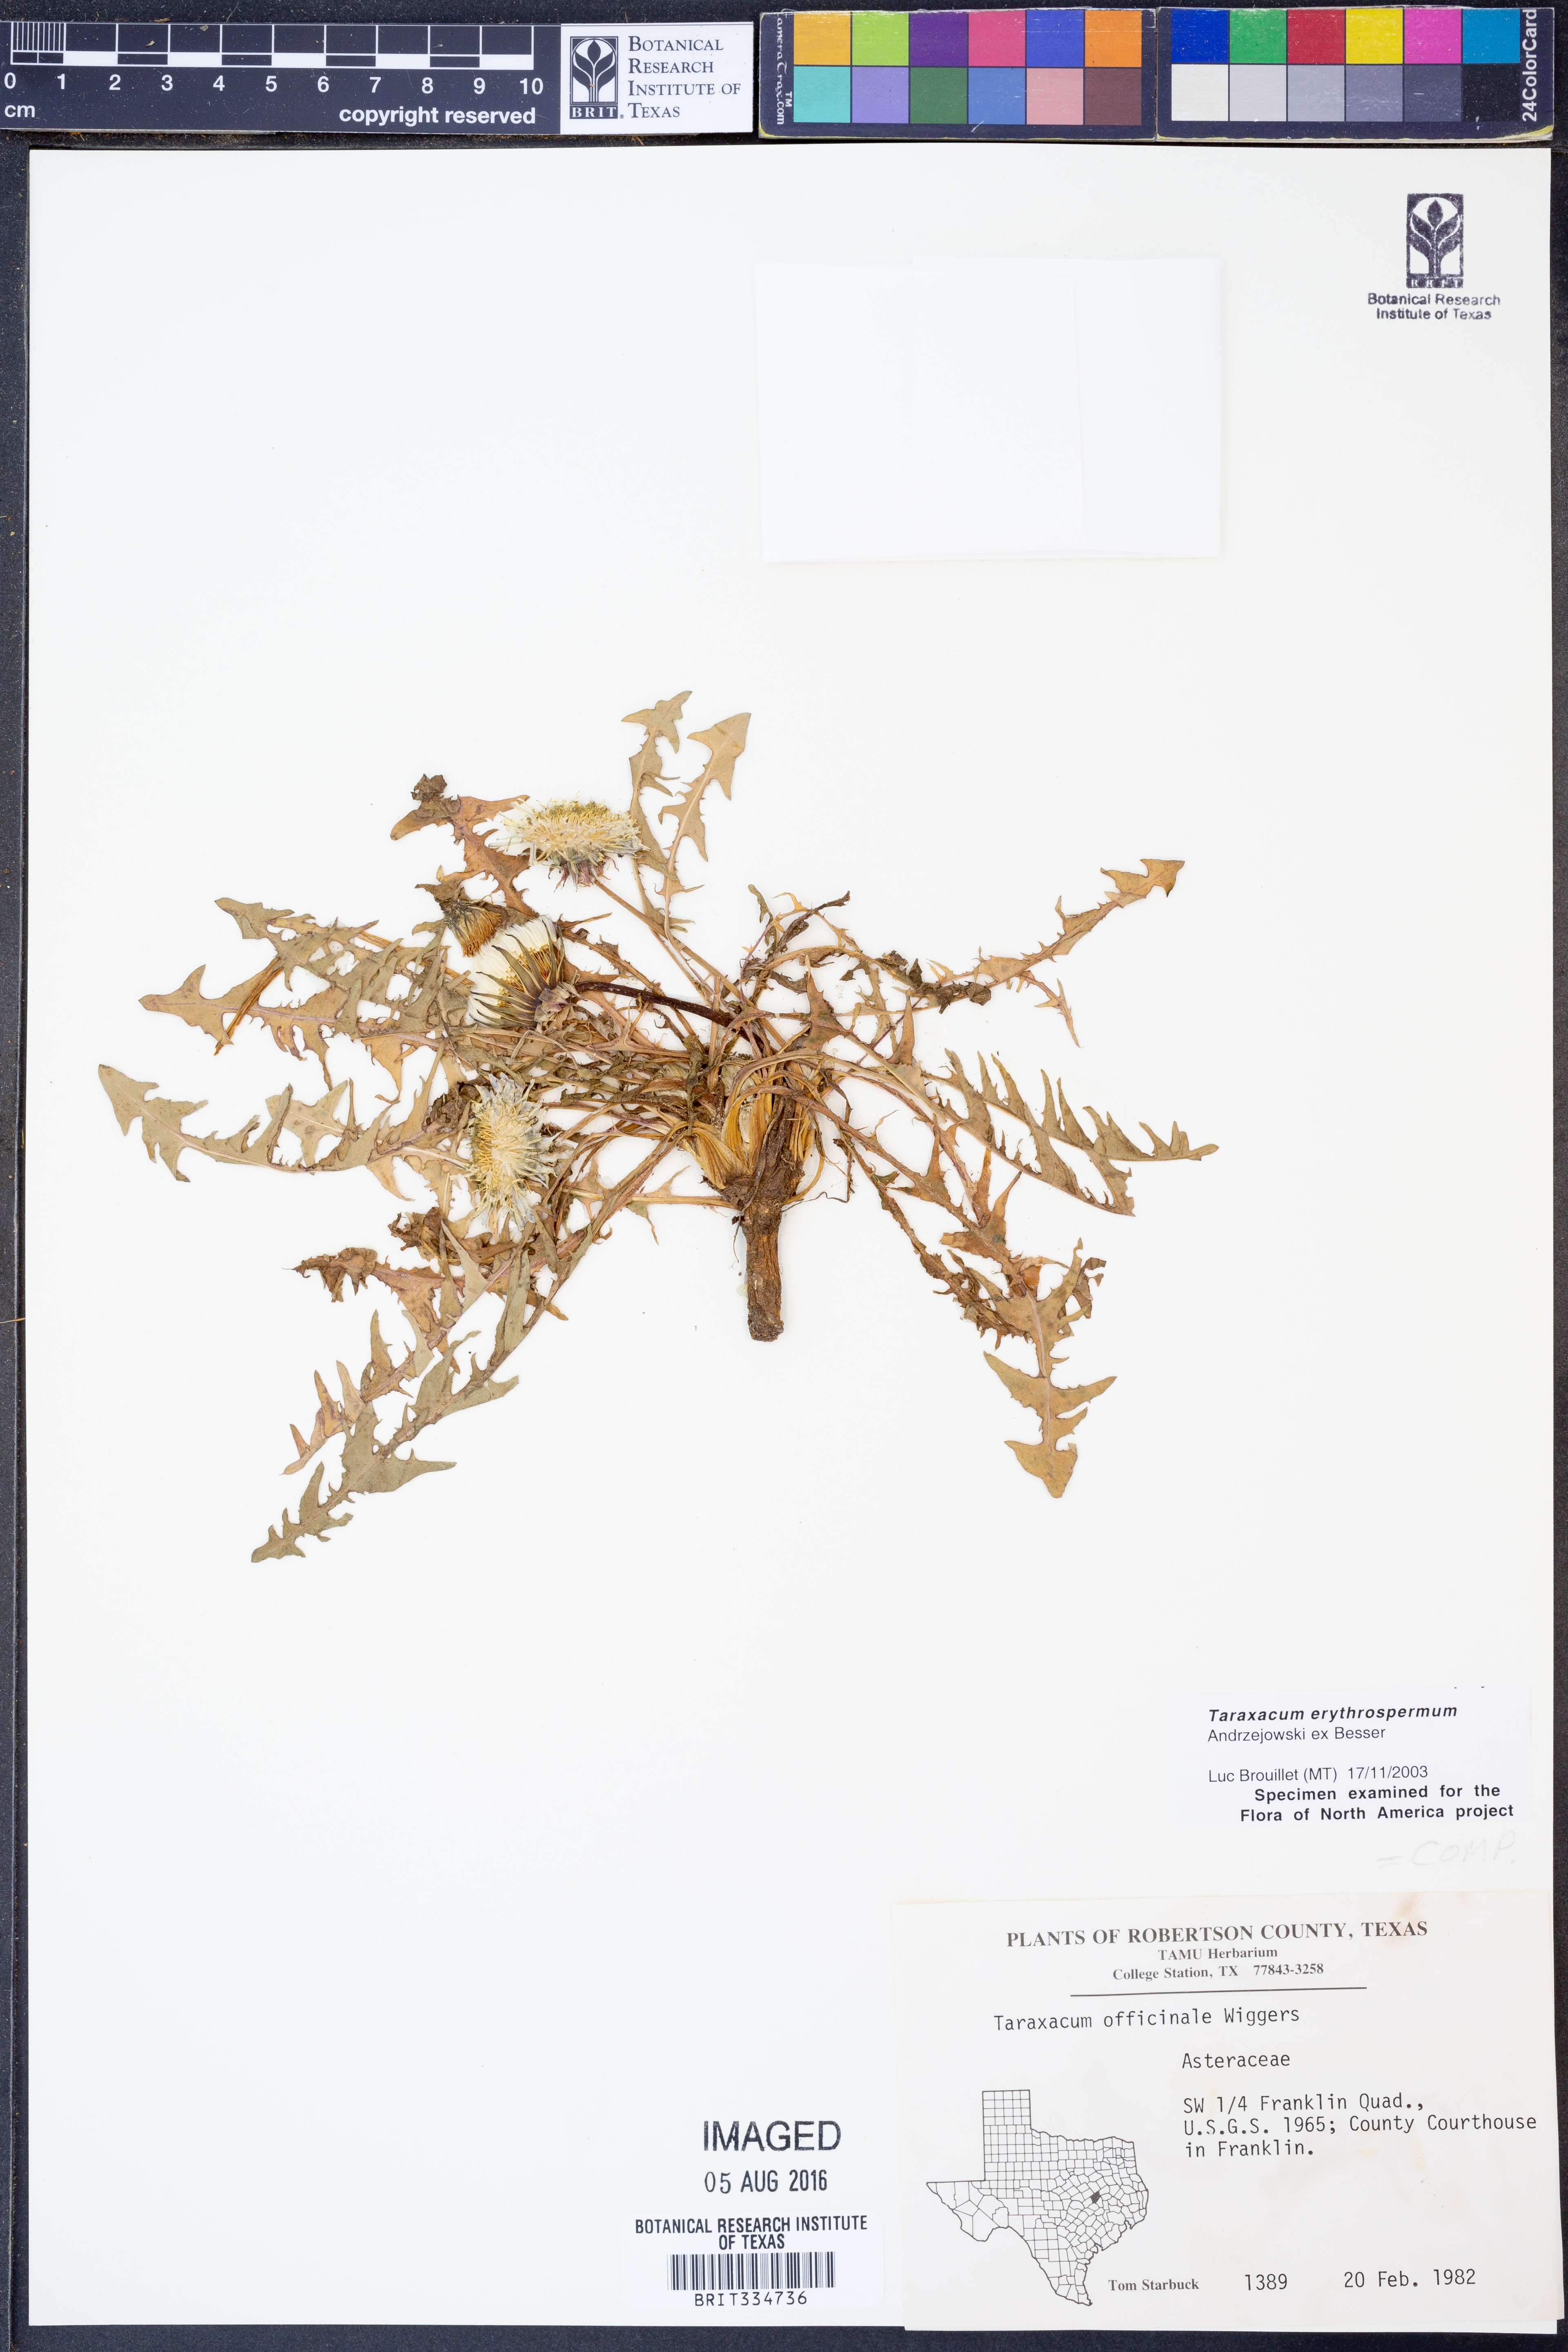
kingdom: Plantae
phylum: Tracheophyta
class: Magnoliopsida
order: Asterales
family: Asteraceae
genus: Taraxacum
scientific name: Taraxacum erythrospermum
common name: Rock dandelion
